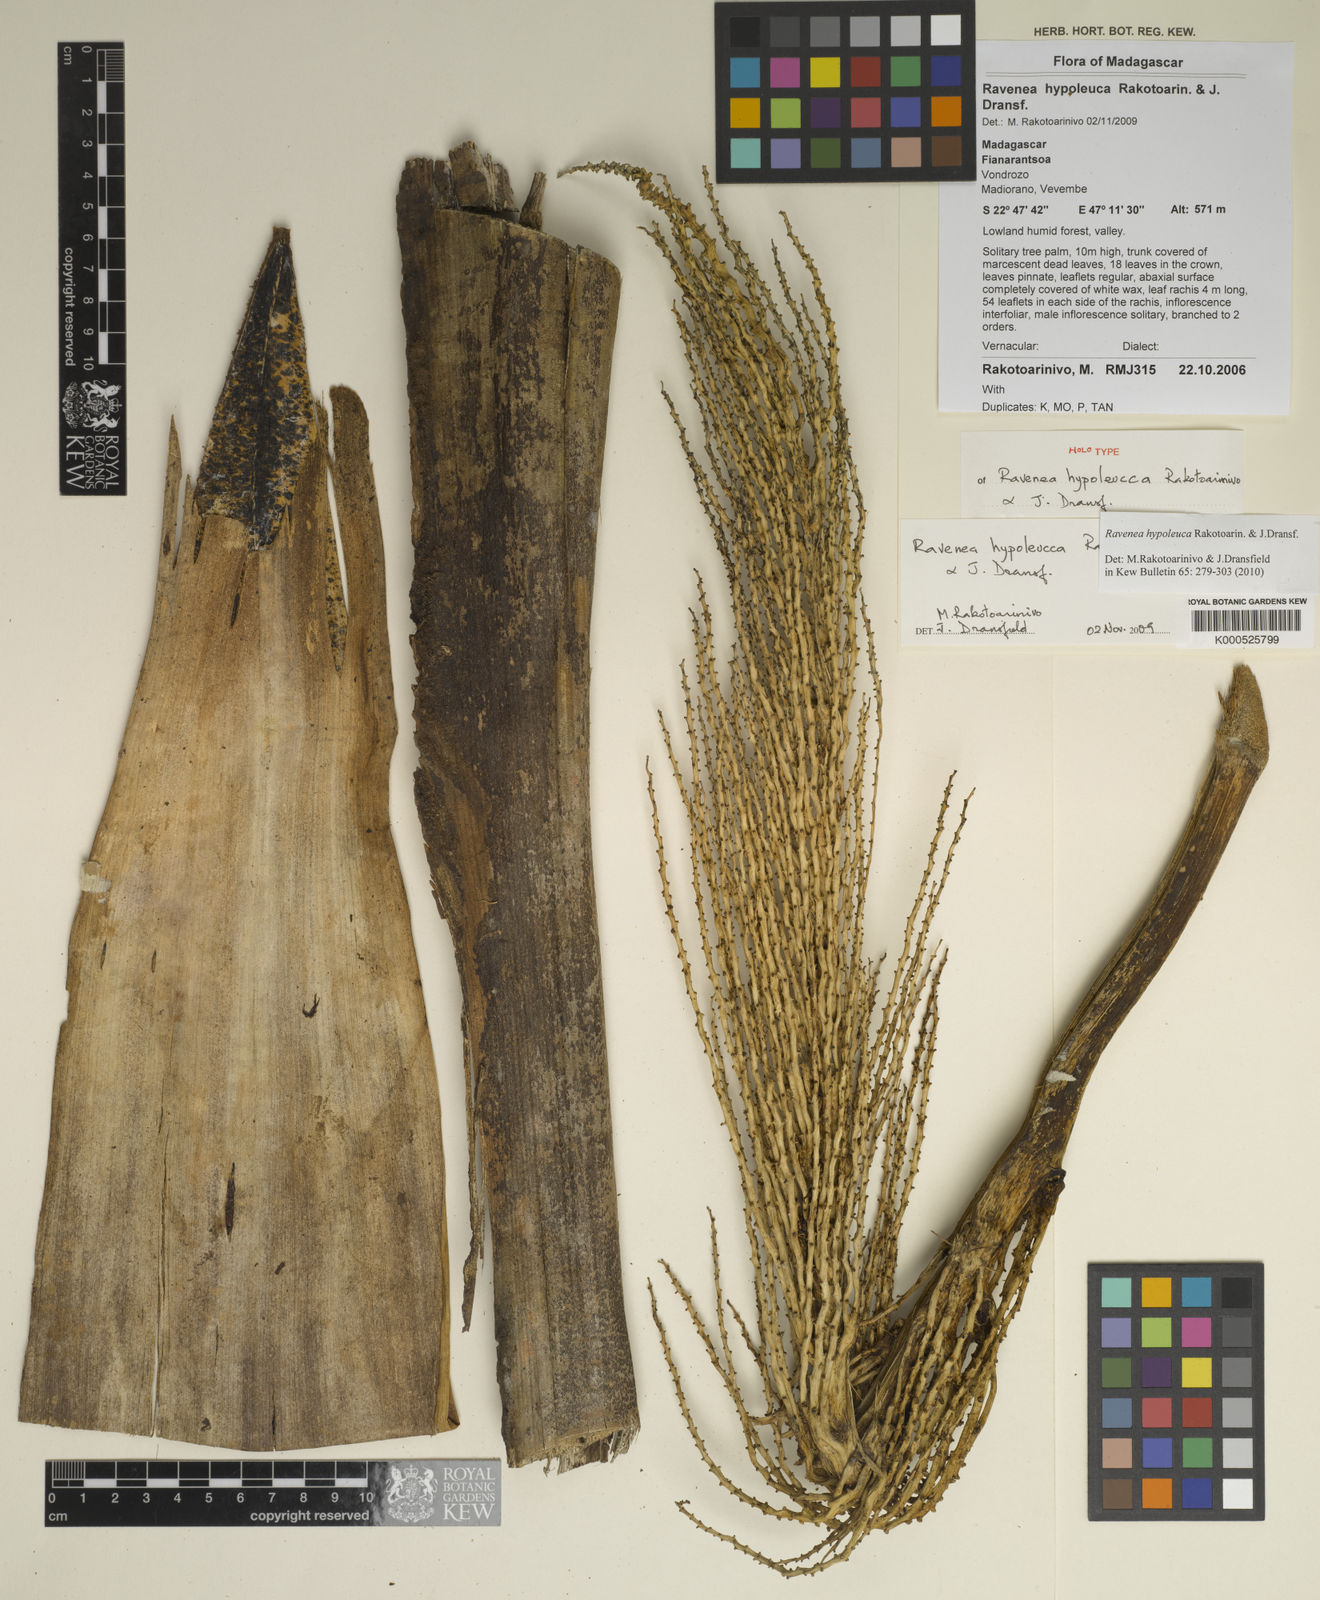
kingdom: Plantae
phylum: Tracheophyta
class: Liliopsida
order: Arecales
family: Arecaceae
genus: Ravenea
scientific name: Ravenea hypoleuca
